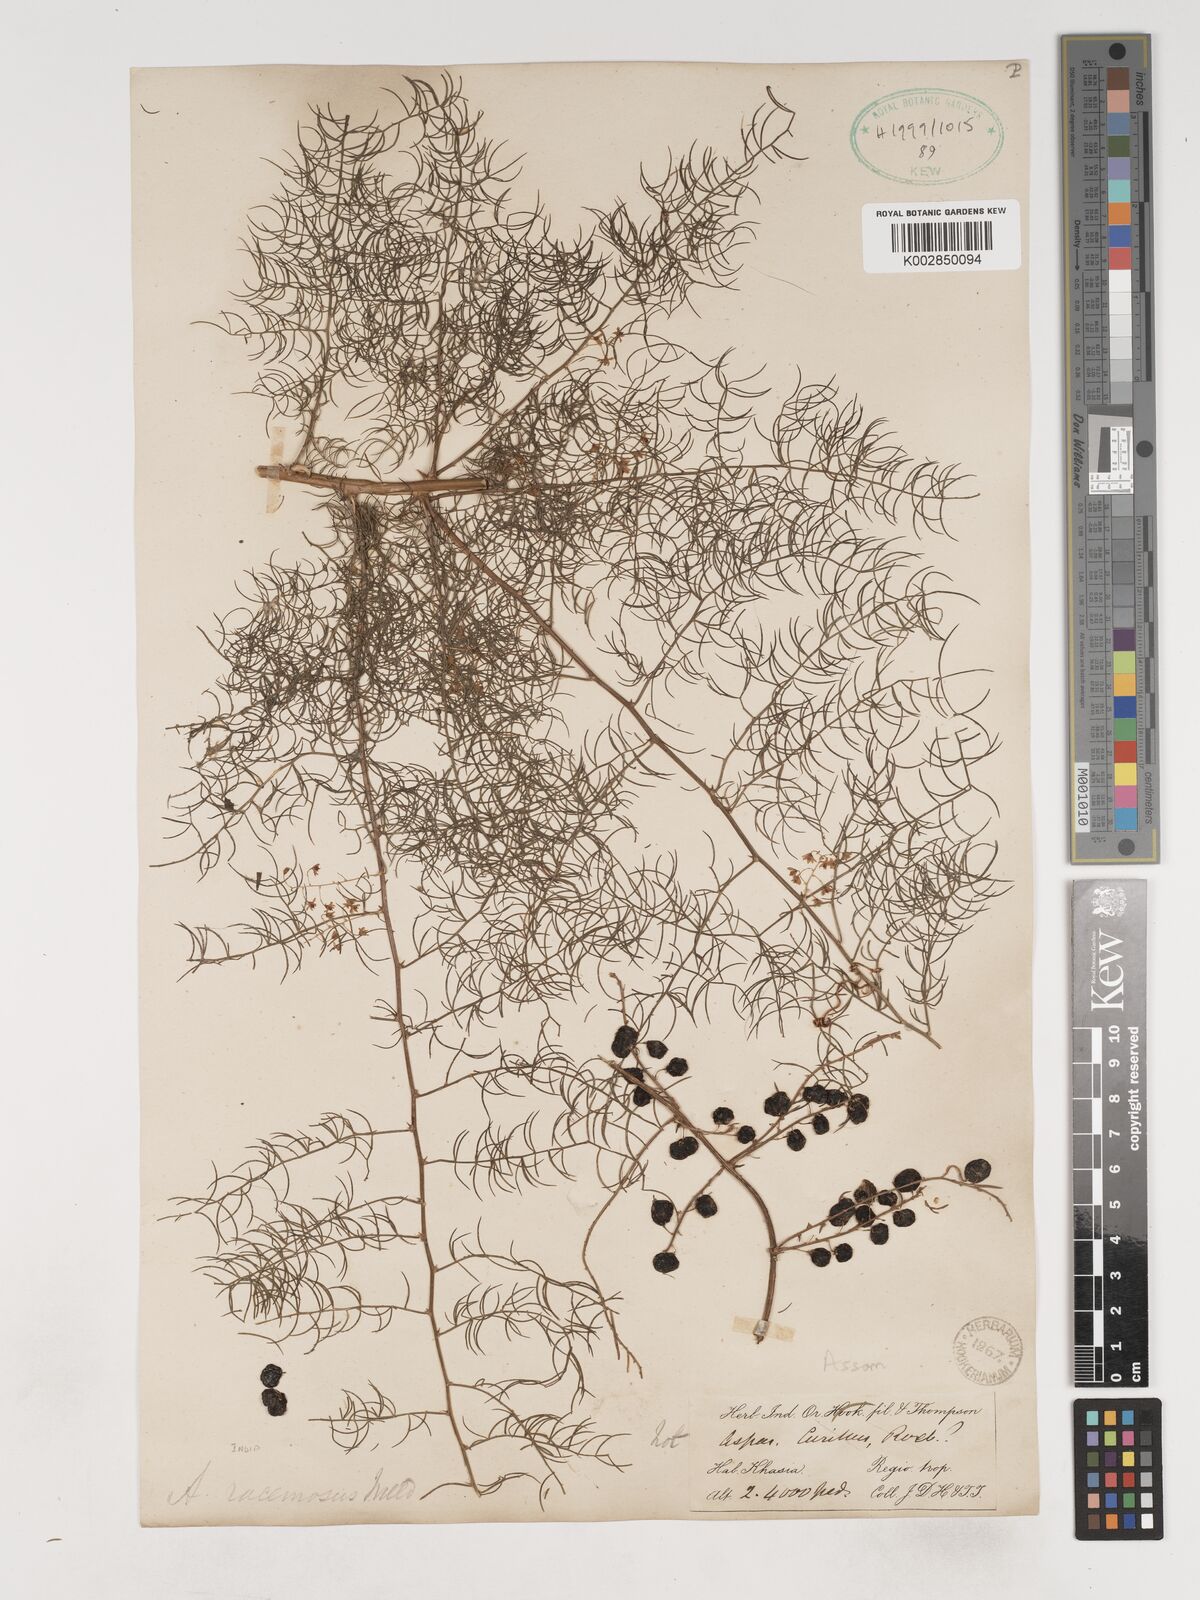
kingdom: Plantae
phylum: Tracheophyta
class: Liliopsida
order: Asparagales
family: Asparagaceae
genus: Asparagus
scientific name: Asparagus racemosus
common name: Asparagus-fern
